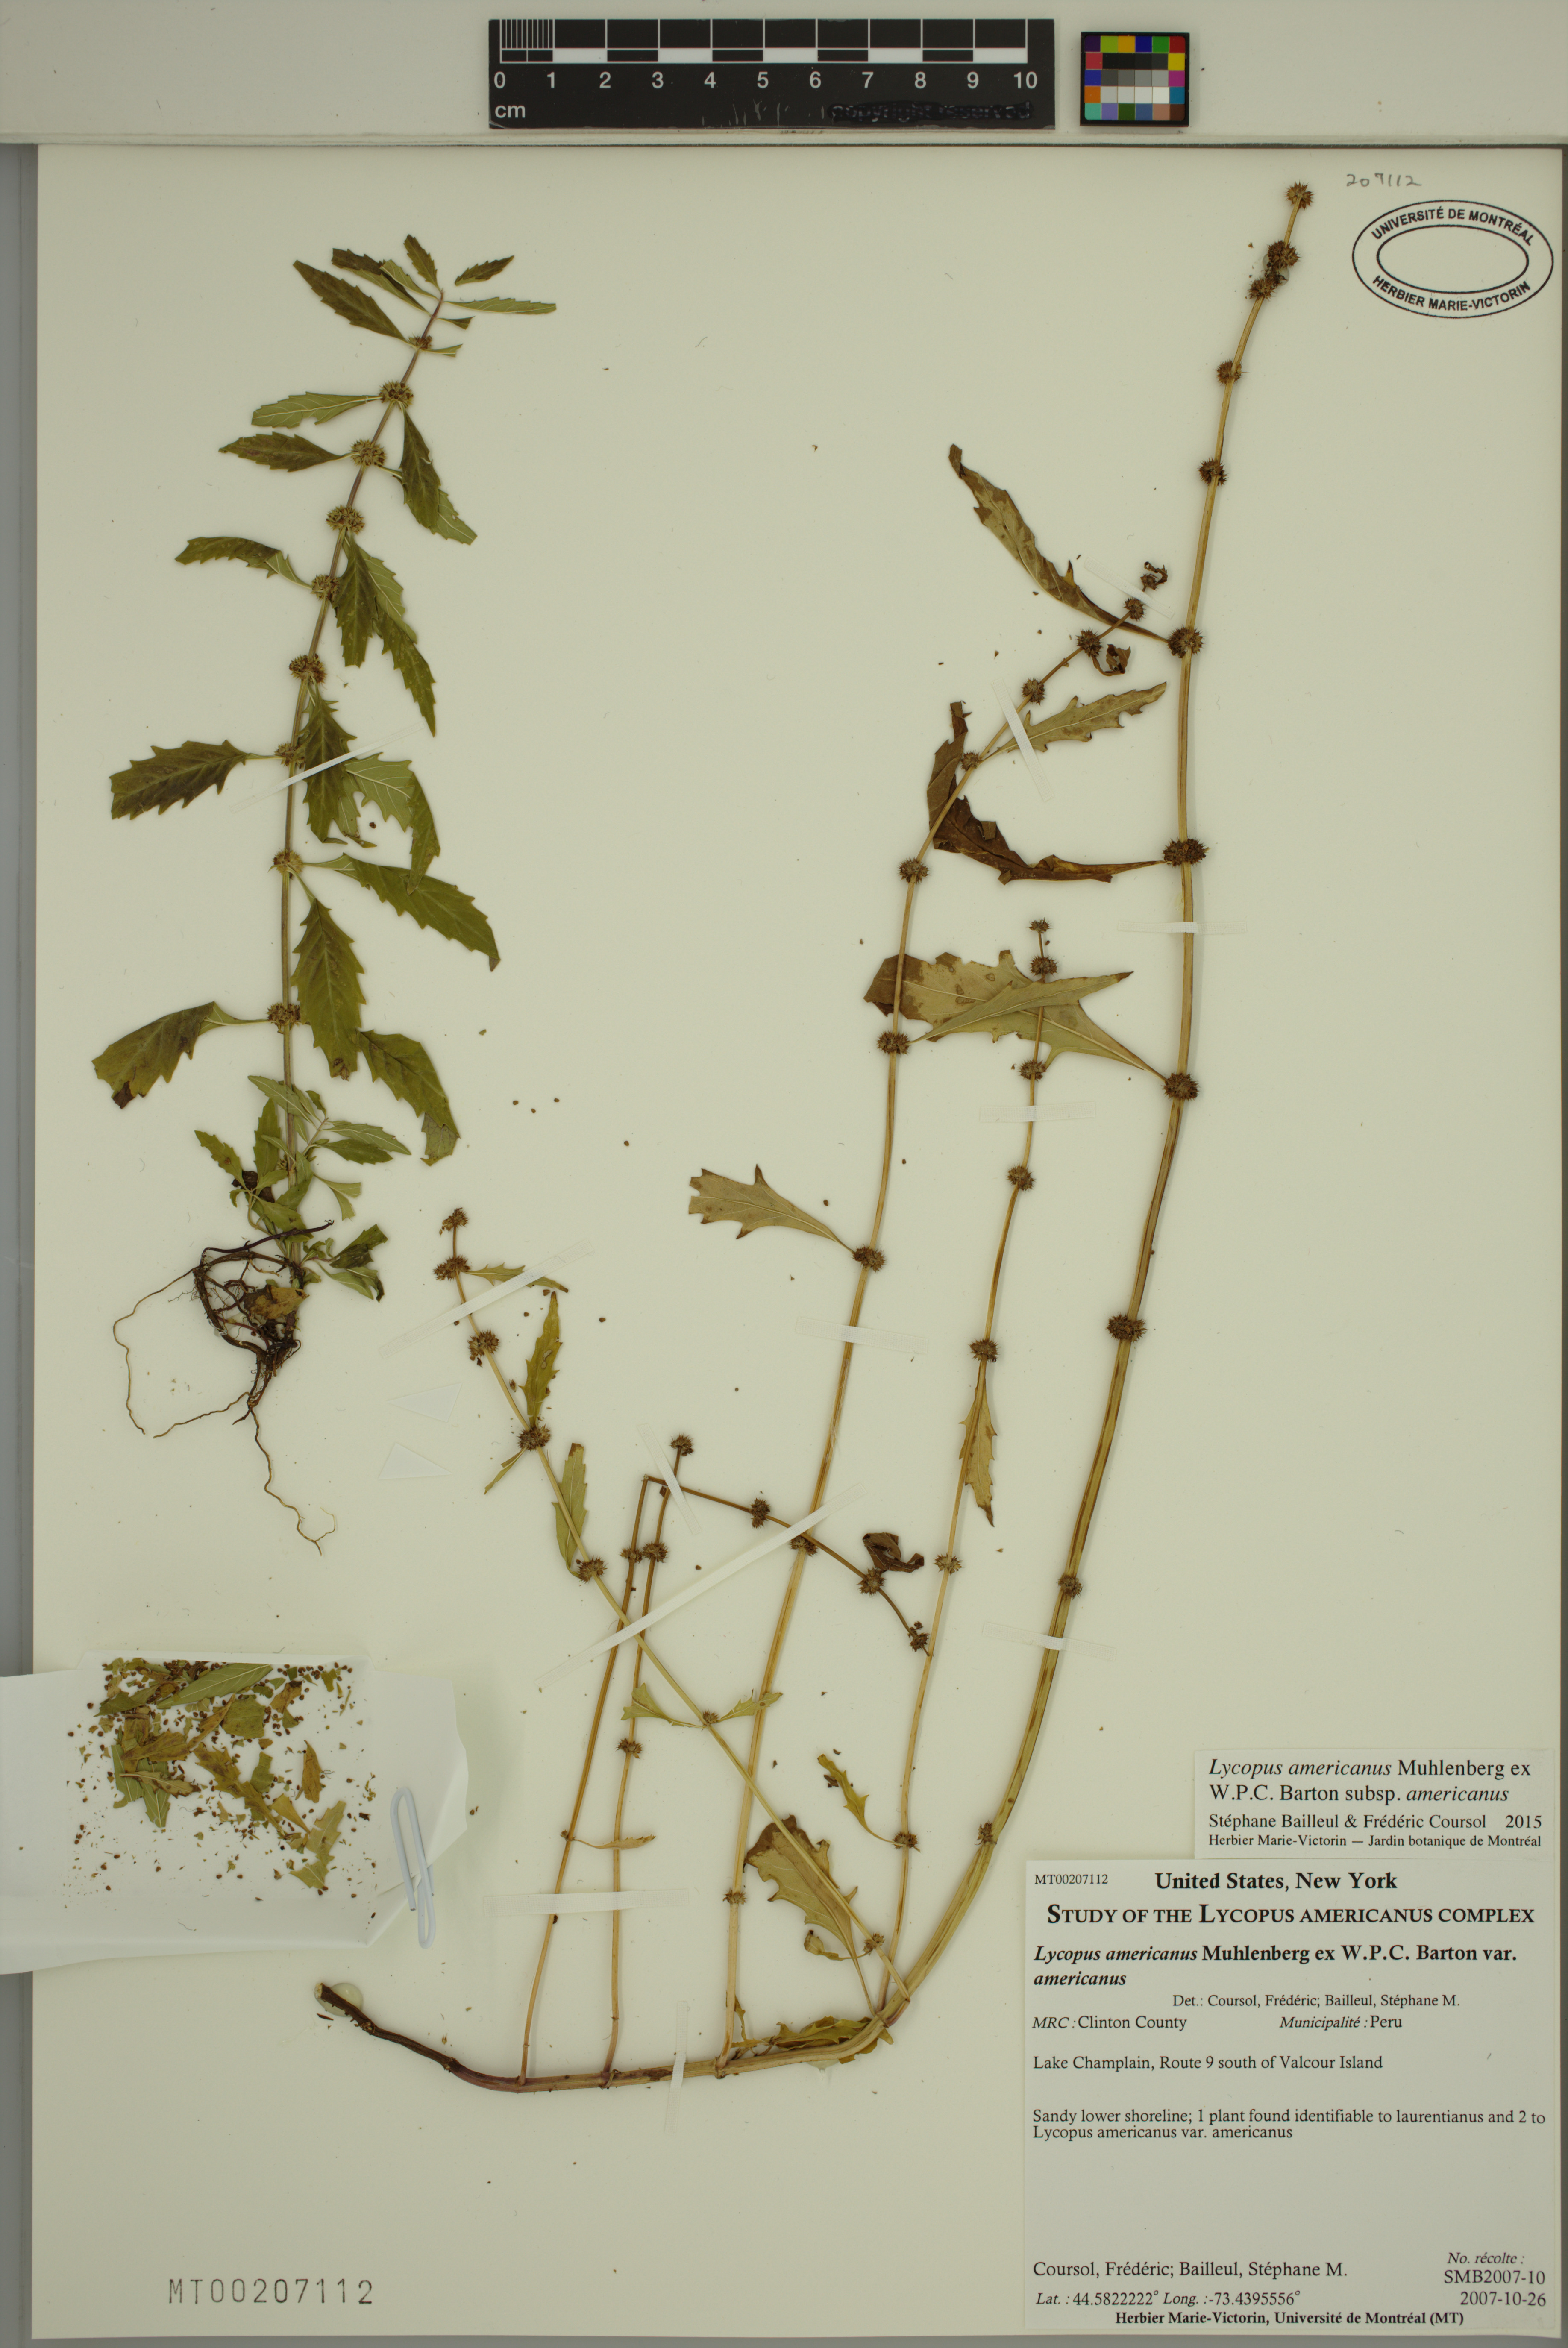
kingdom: Plantae
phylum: Tracheophyta
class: Magnoliopsida
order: Lamiales
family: Lamiaceae
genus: Lycopus
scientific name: Lycopus americanus
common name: American bugleweed
